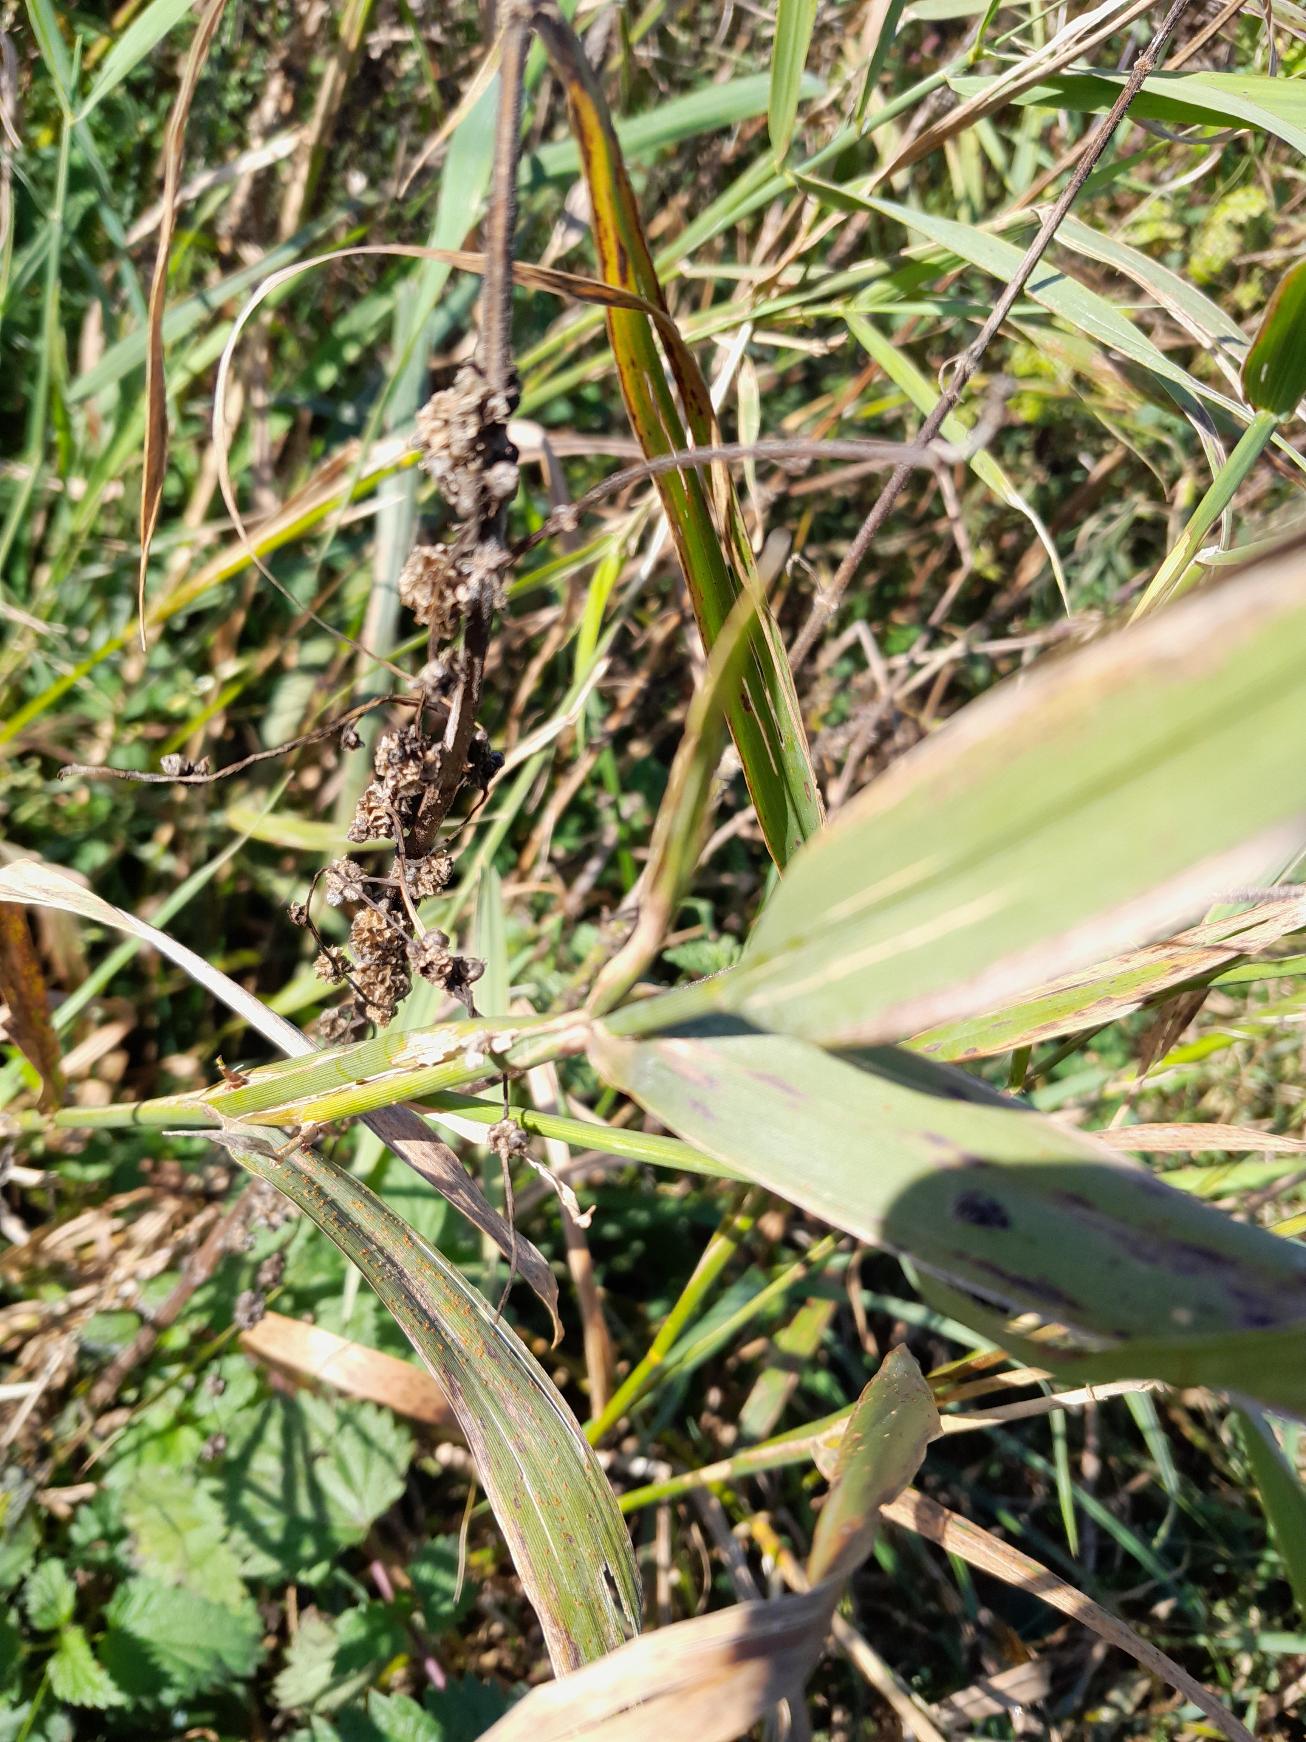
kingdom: Plantae
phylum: Tracheophyta
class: Magnoliopsida
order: Solanales
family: Convolvulaceae
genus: Cuscuta
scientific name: Cuscuta europaea
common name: Nælde-silke
